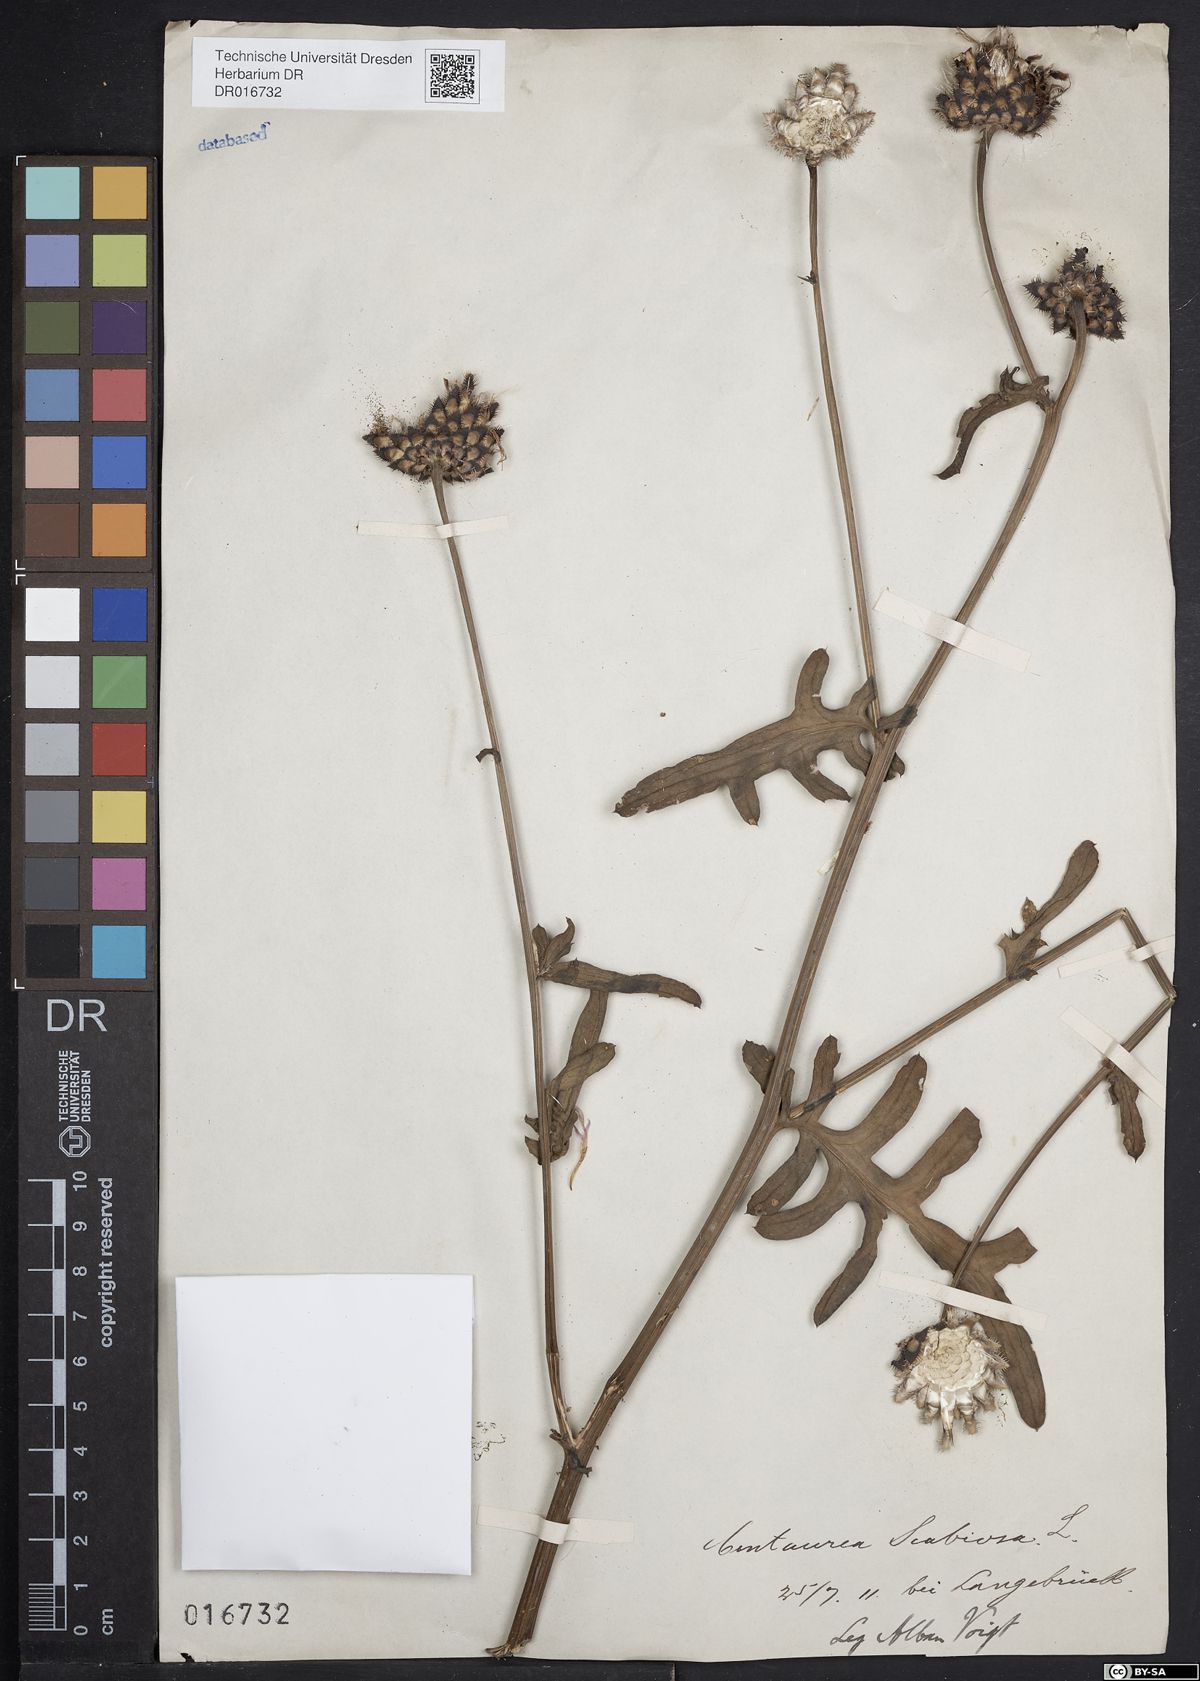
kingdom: Plantae
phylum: Tracheophyta
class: Magnoliopsida
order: Asterales
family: Asteraceae
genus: Centaurea
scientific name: Centaurea scabiosa
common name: Greater knapweed
